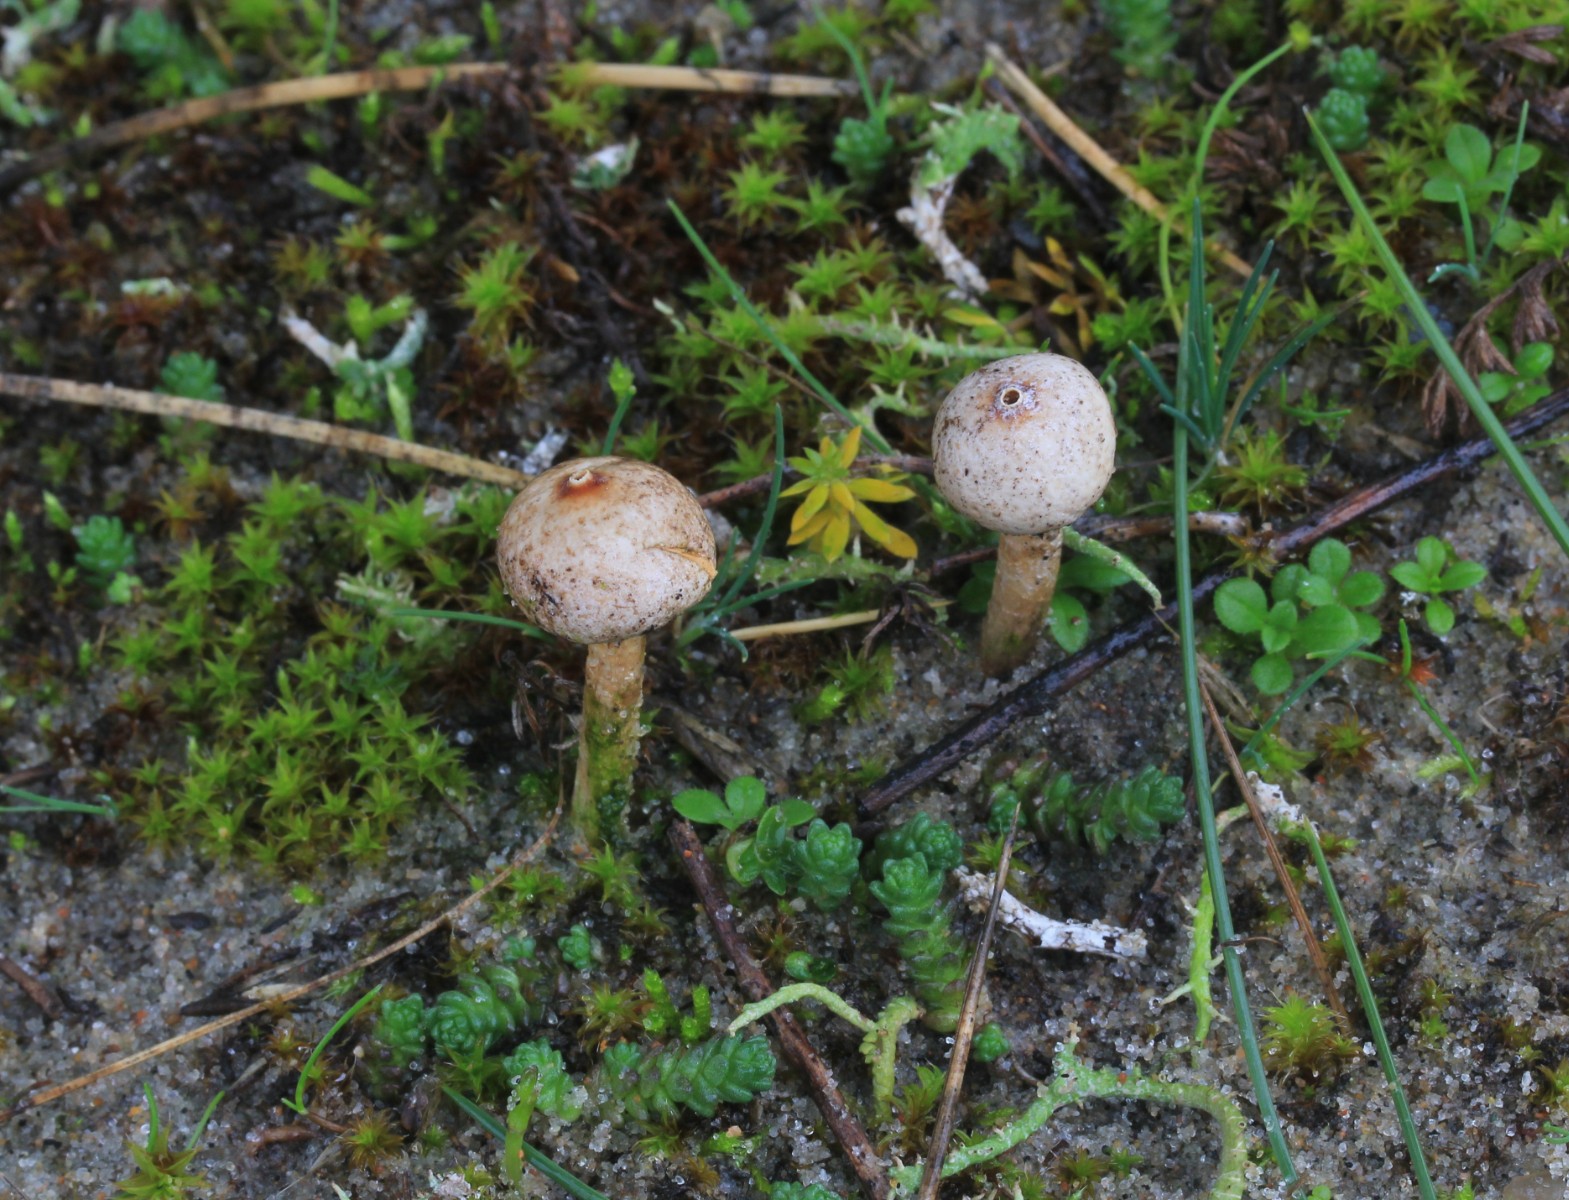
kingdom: Fungi
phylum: Basidiomycota
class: Agaricomycetes
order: Agaricales
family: Agaricaceae
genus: Tulostoma
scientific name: Tulostoma brumale
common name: vinter-stilkbovist
